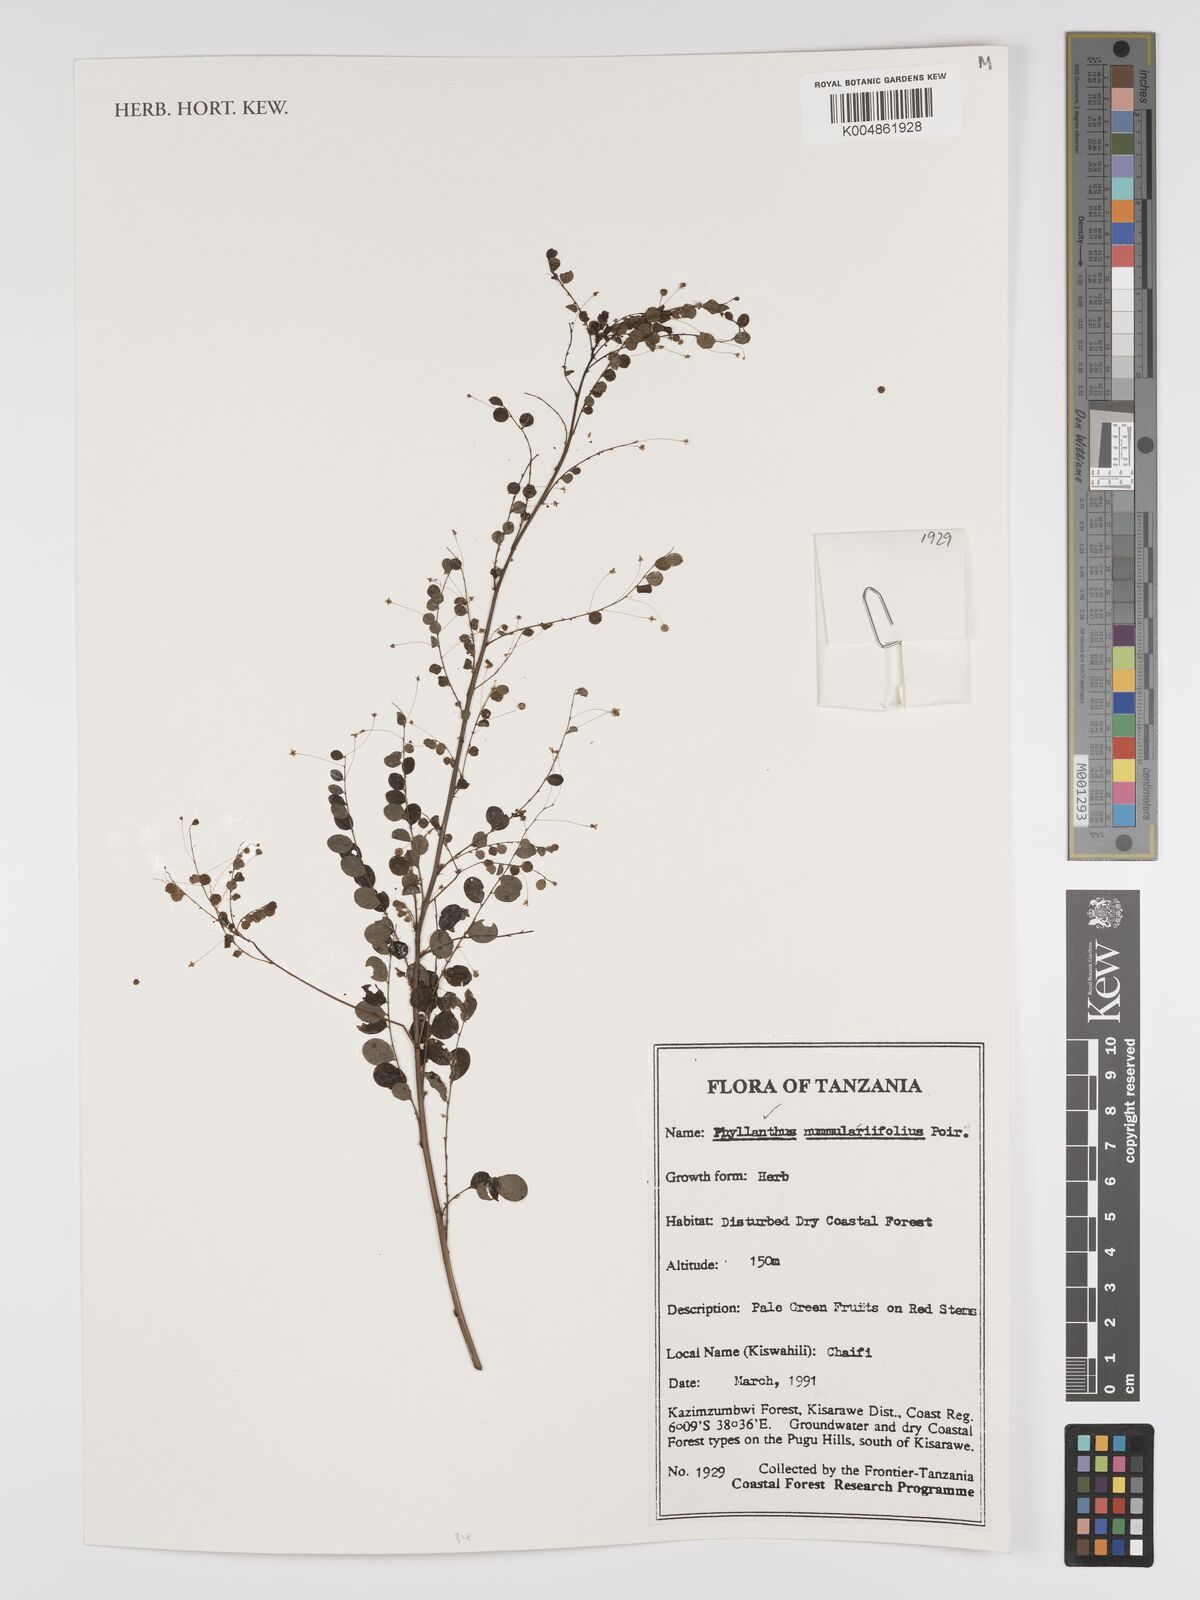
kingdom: Plantae
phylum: Tracheophyta
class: Magnoliopsida
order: Malpighiales
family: Phyllanthaceae
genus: Phyllanthus
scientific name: Phyllanthus nummulariifolius
